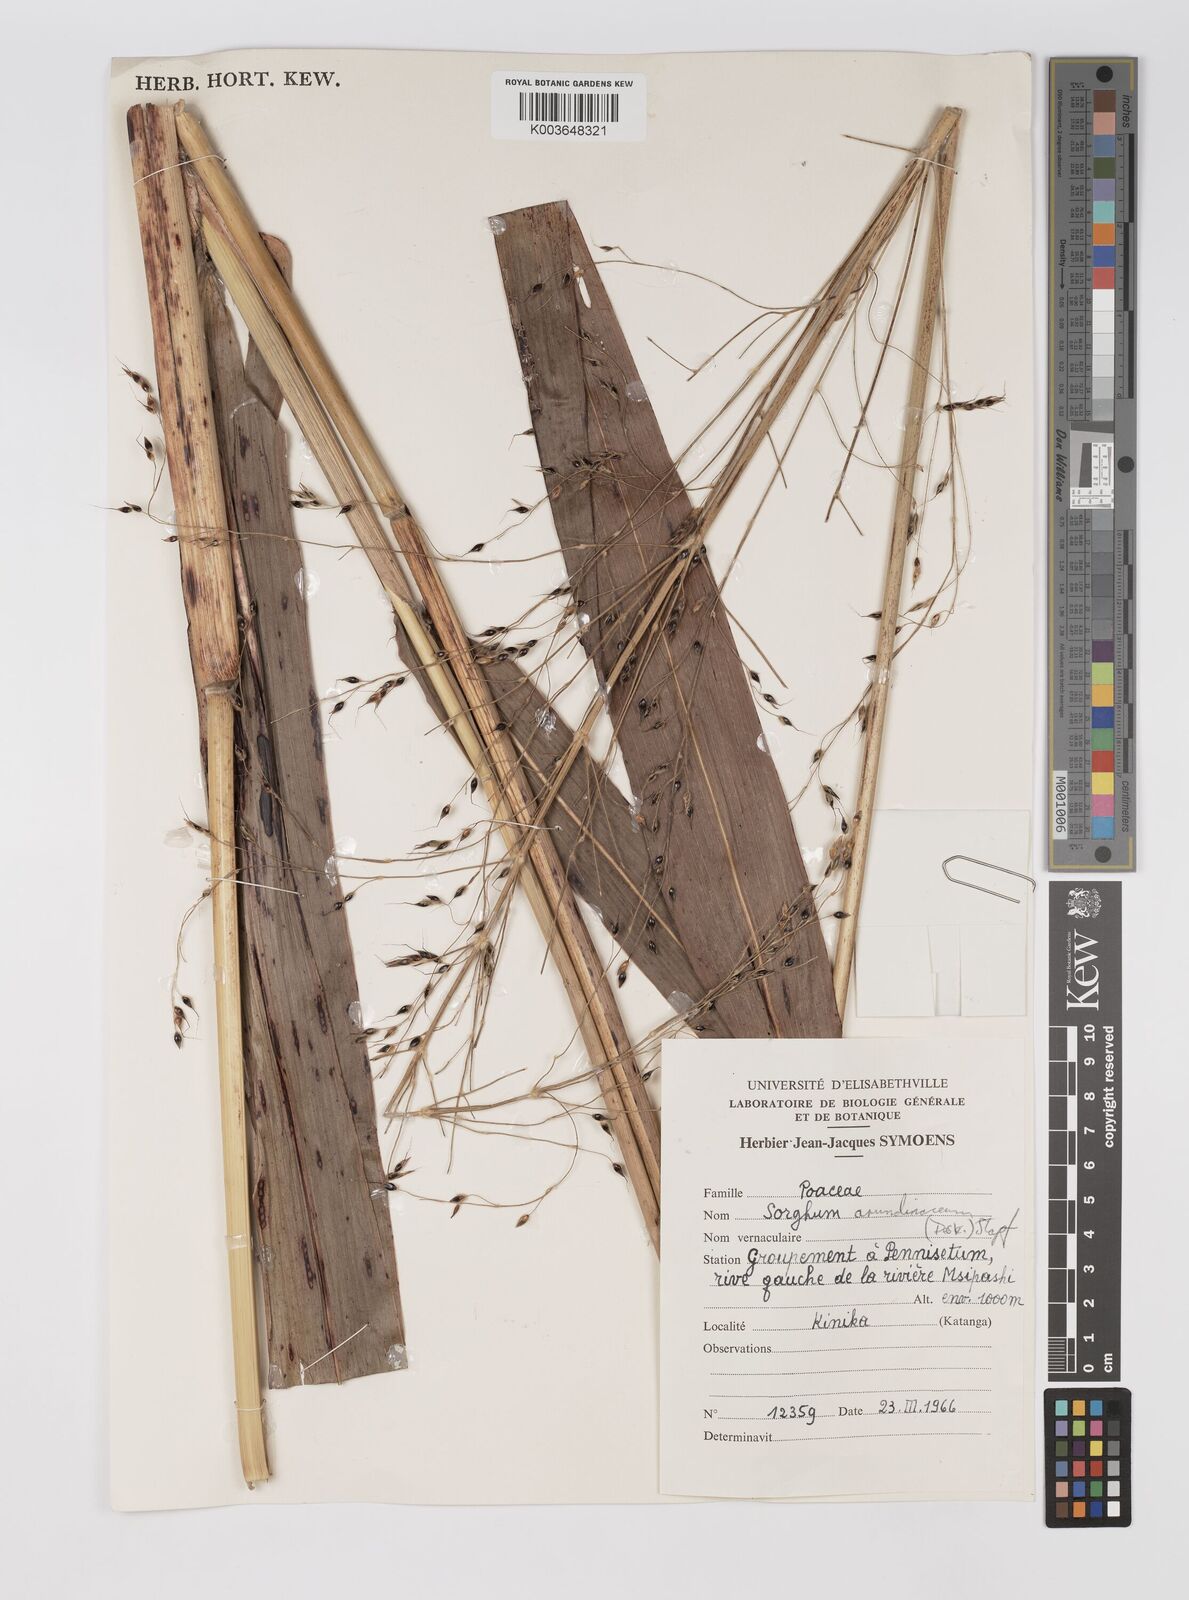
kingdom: Plantae
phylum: Tracheophyta
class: Liliopsida
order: Poales
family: Poaceae
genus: Sorghum
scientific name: Sorghum arundinaceum
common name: Sorghum
